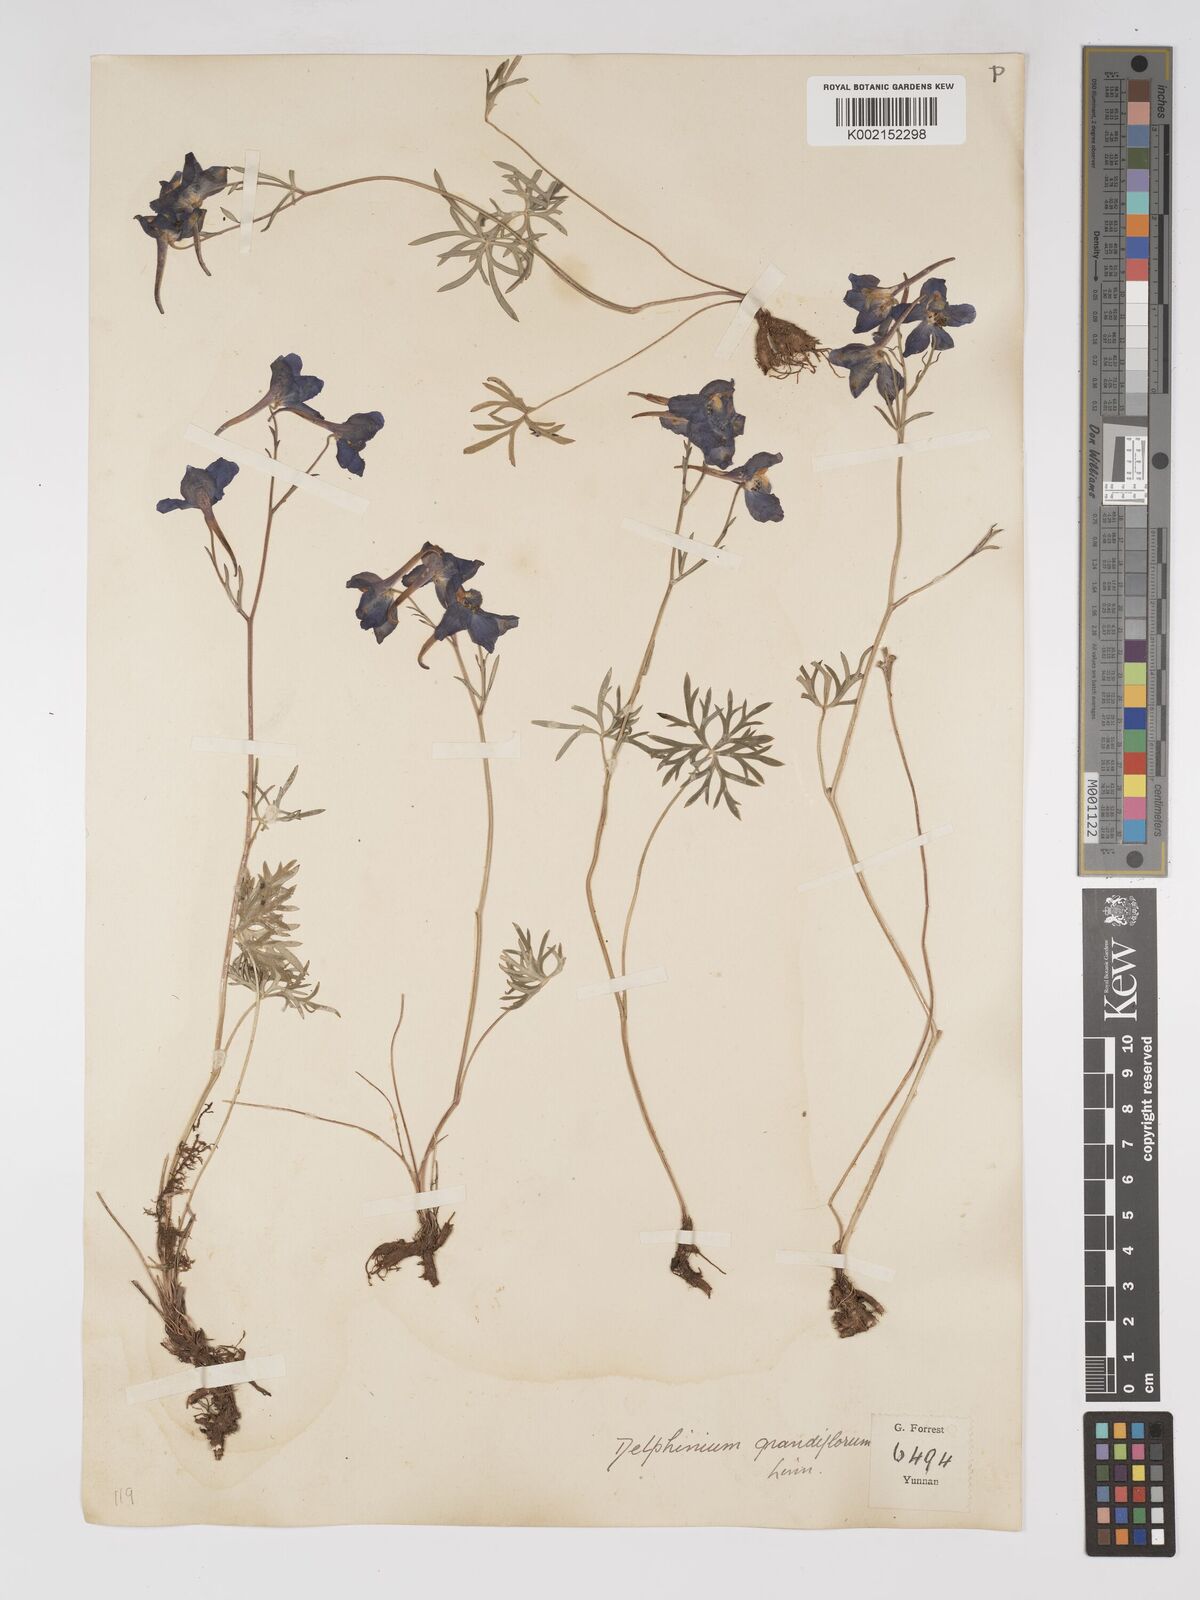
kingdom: Plantae
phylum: Tracheophyta
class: Magnoliopsida
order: Ranunculales
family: Ranunculaceae
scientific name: Ranunculaceae
